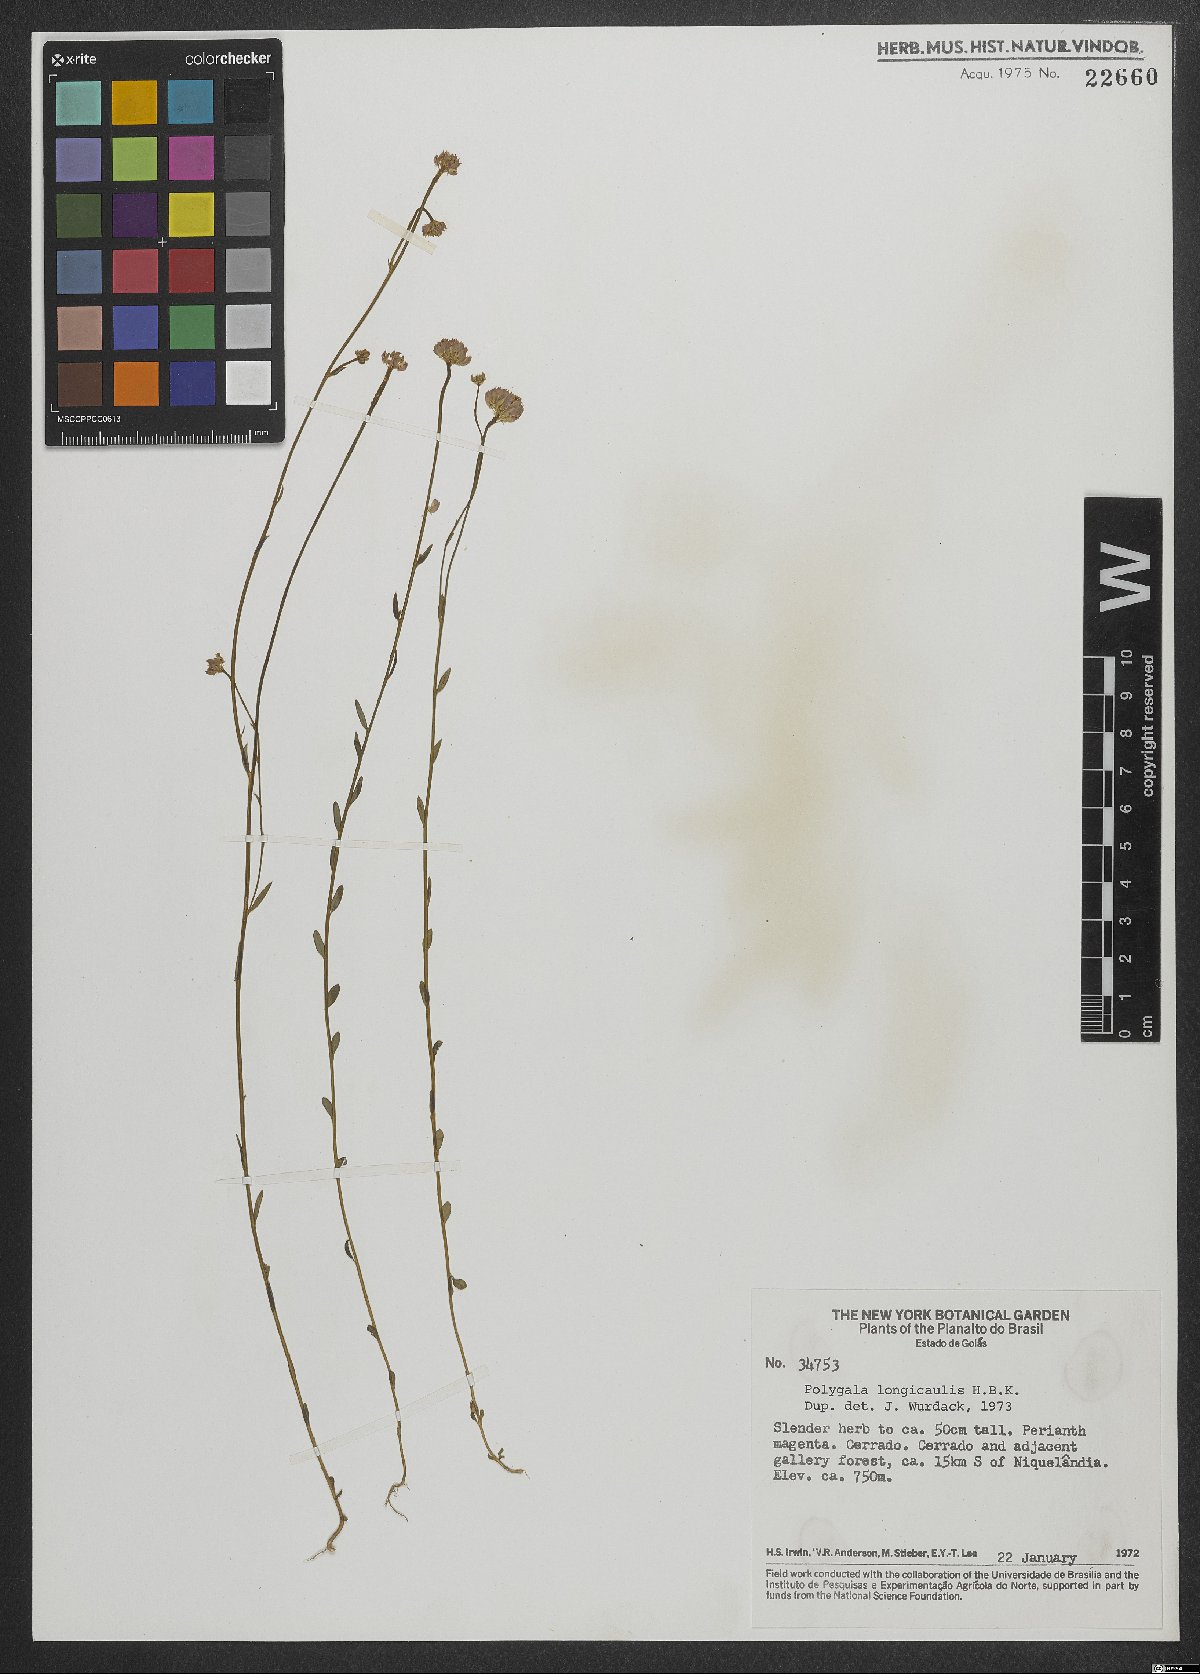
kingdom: Plantae
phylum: Tracheophyta
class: Magnoliopsida
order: Fabales
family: Polygalaceae
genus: Polygala
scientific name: Polygala longicaulis
